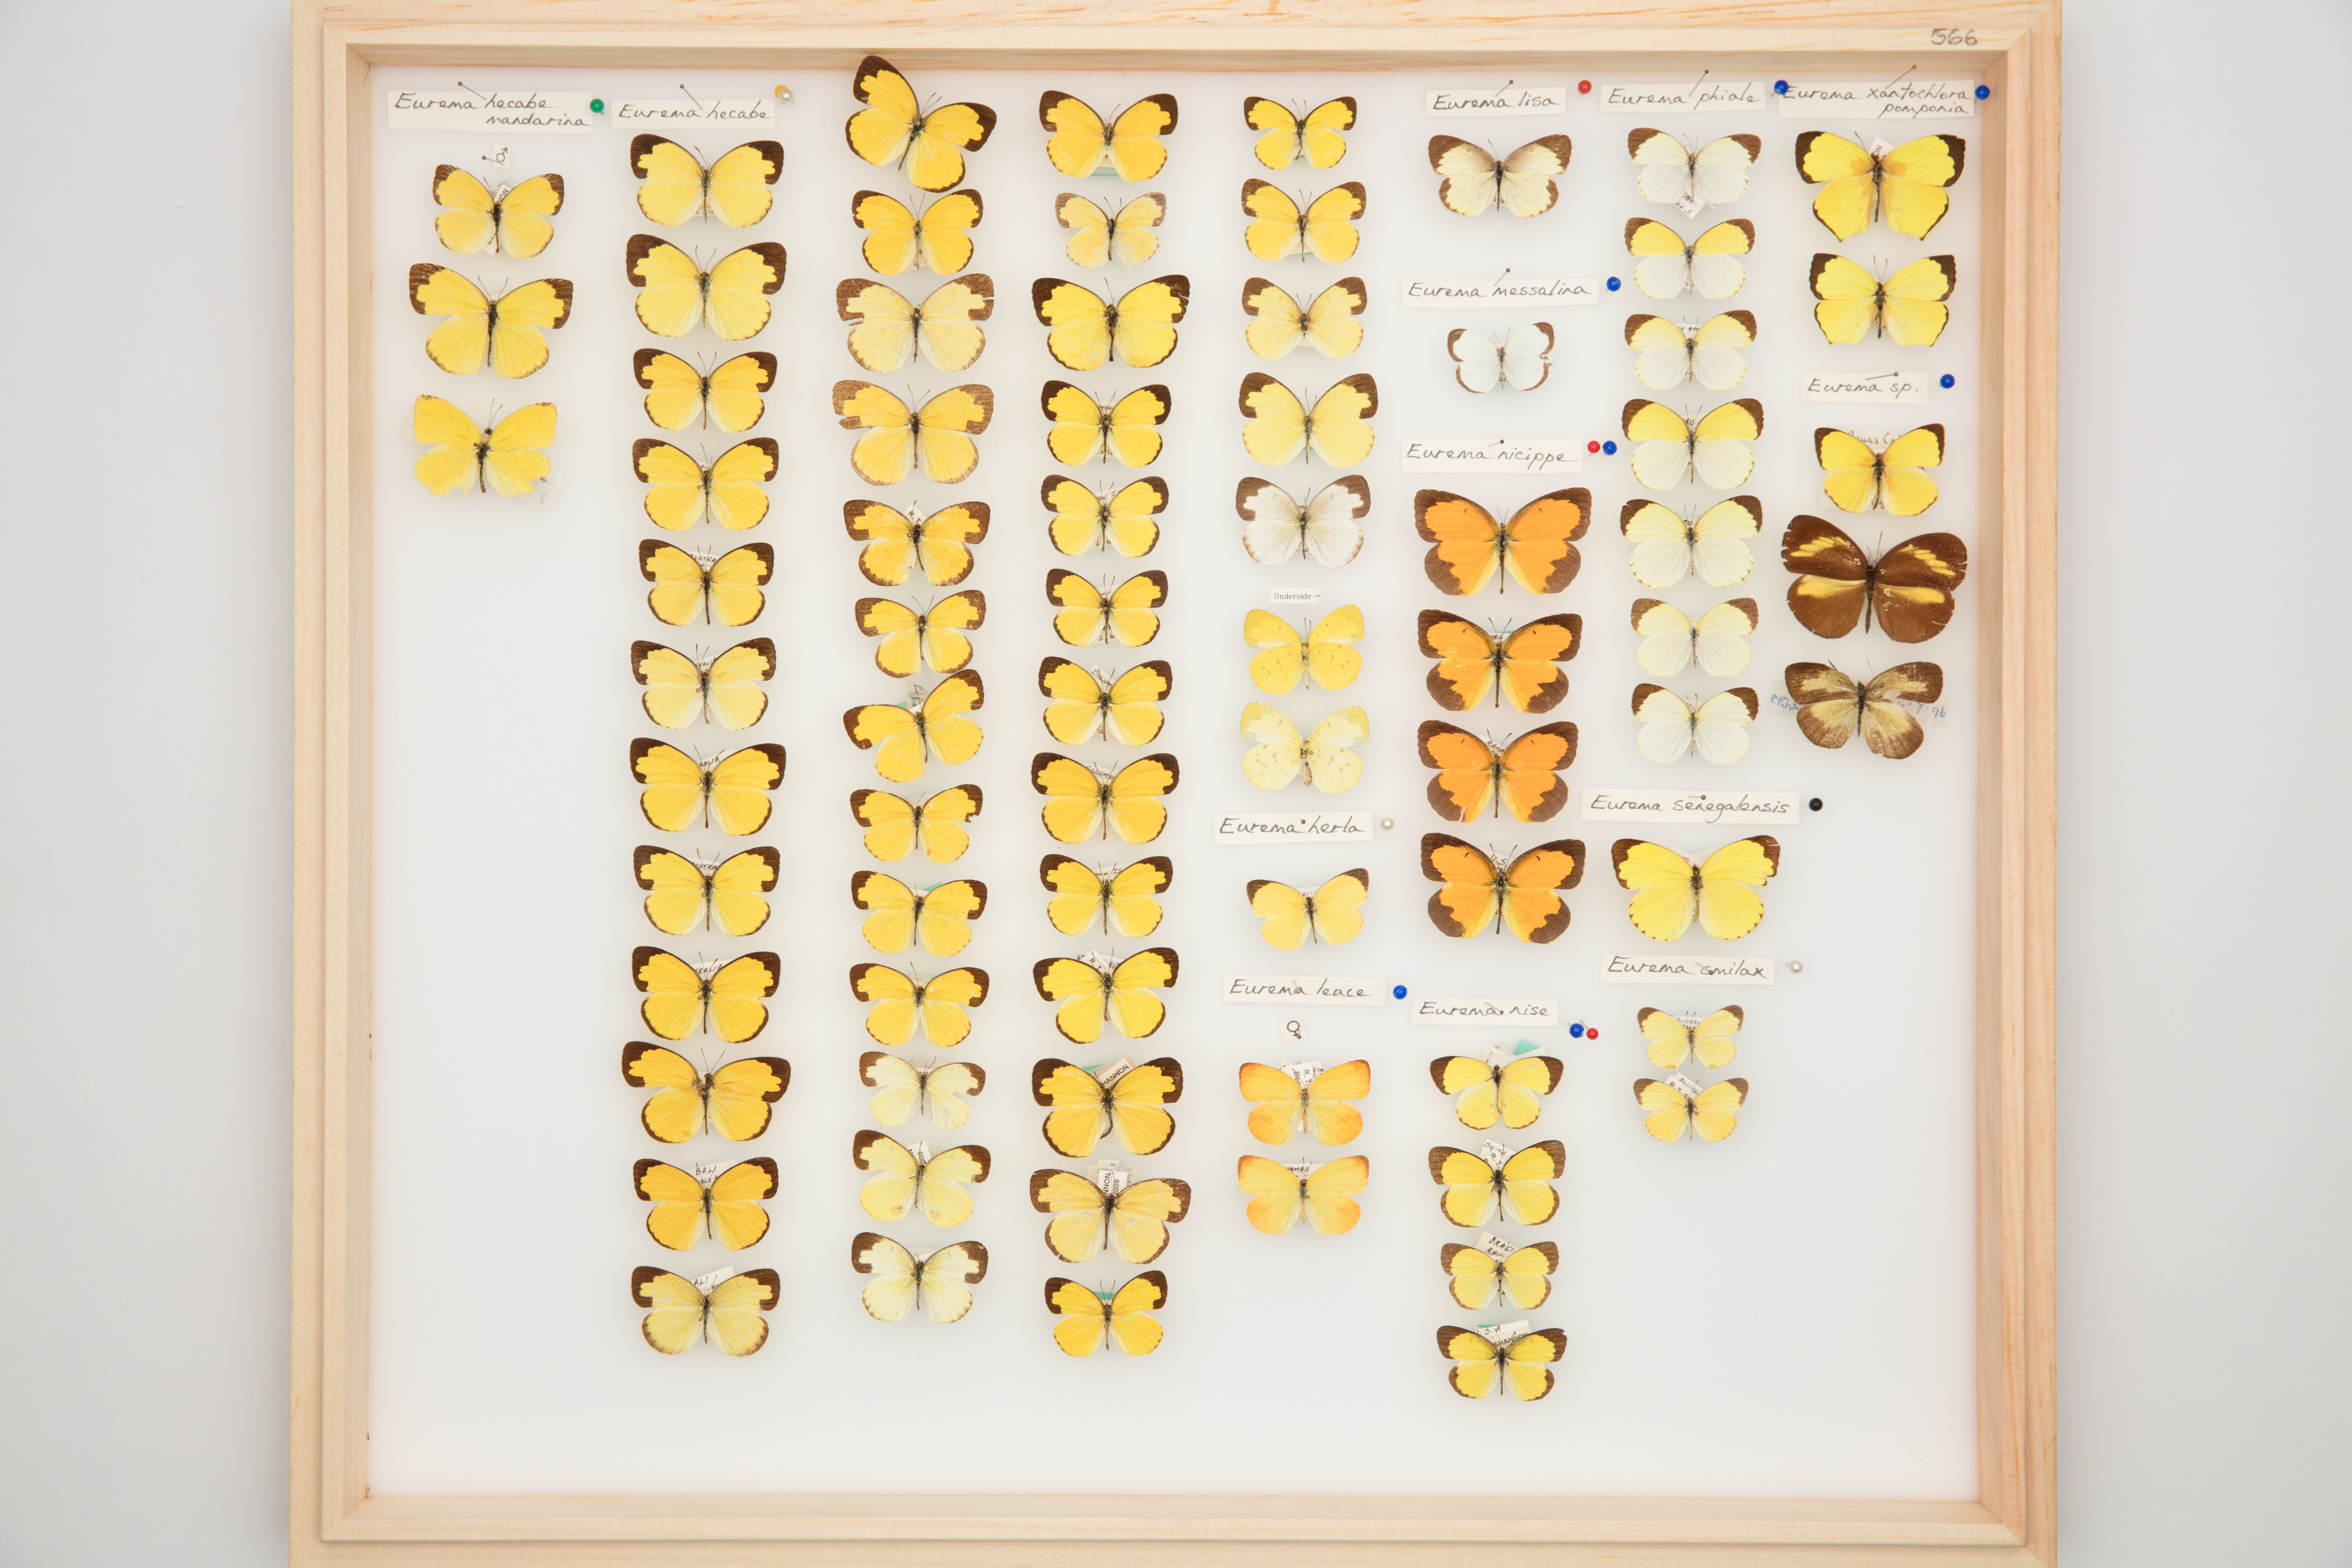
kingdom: Animalia
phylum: Arthropoda
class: Insecta
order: Lepidoptera
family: Pieridae
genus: Eurema
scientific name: Eurema hecabe
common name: Pale grass yellow
